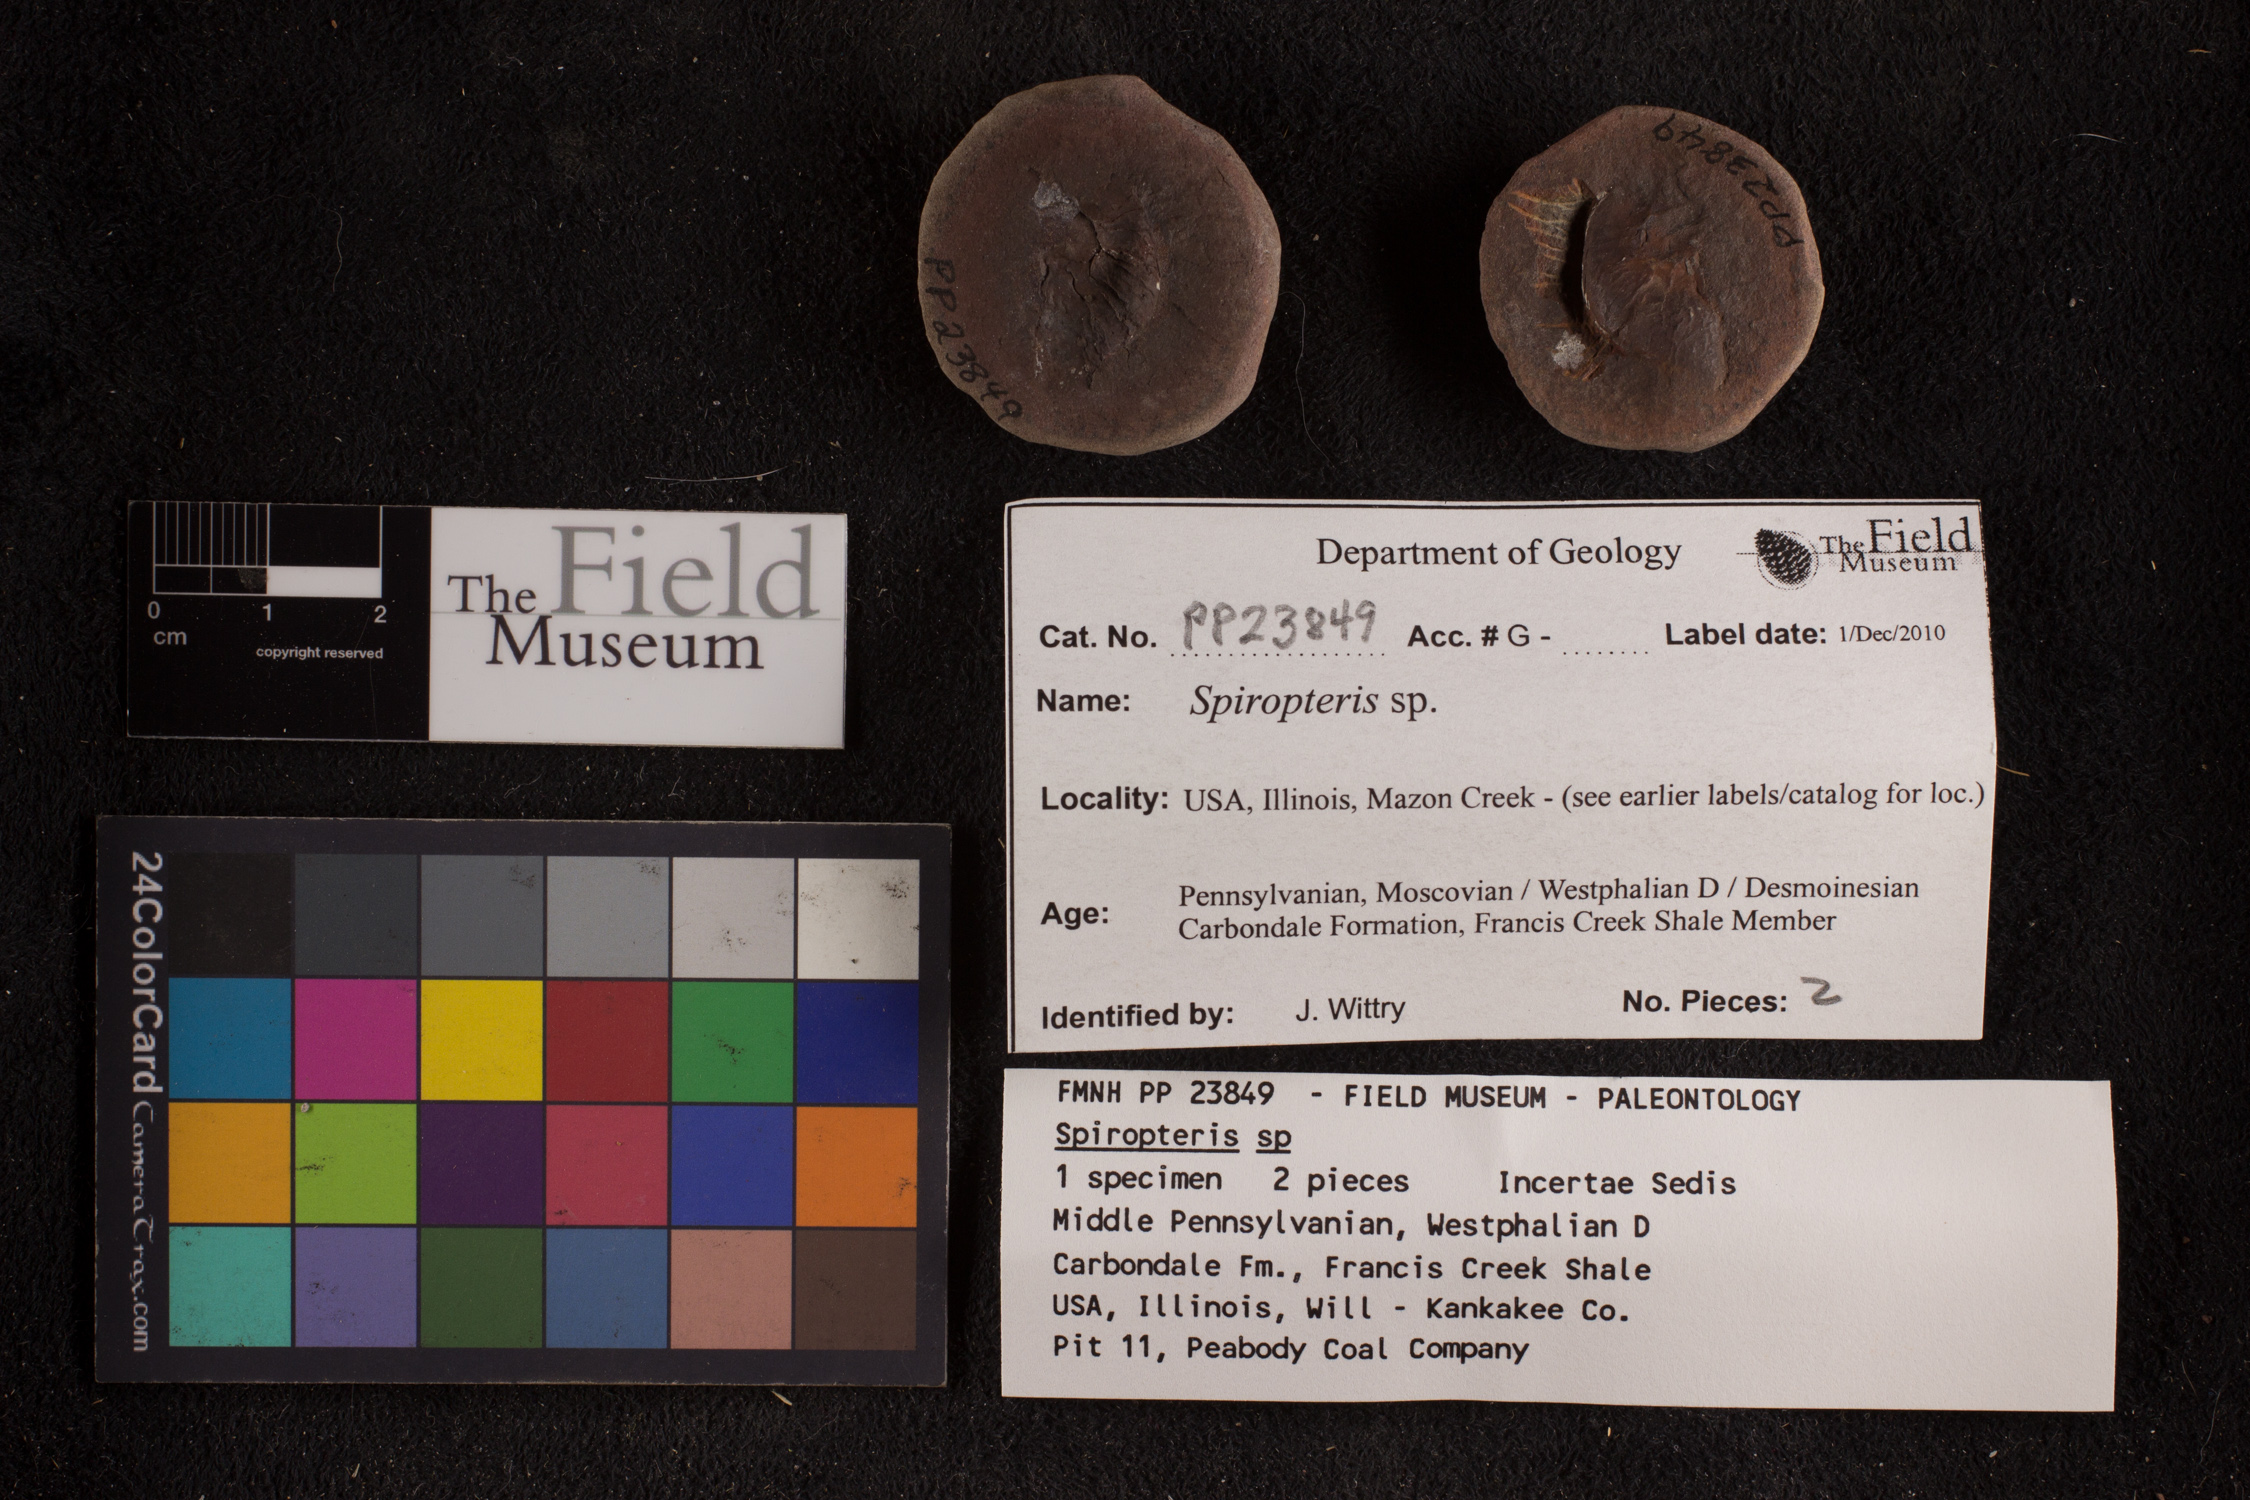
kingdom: Plantae
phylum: Tracheophyta
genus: Spiropteris
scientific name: Spiropteris
